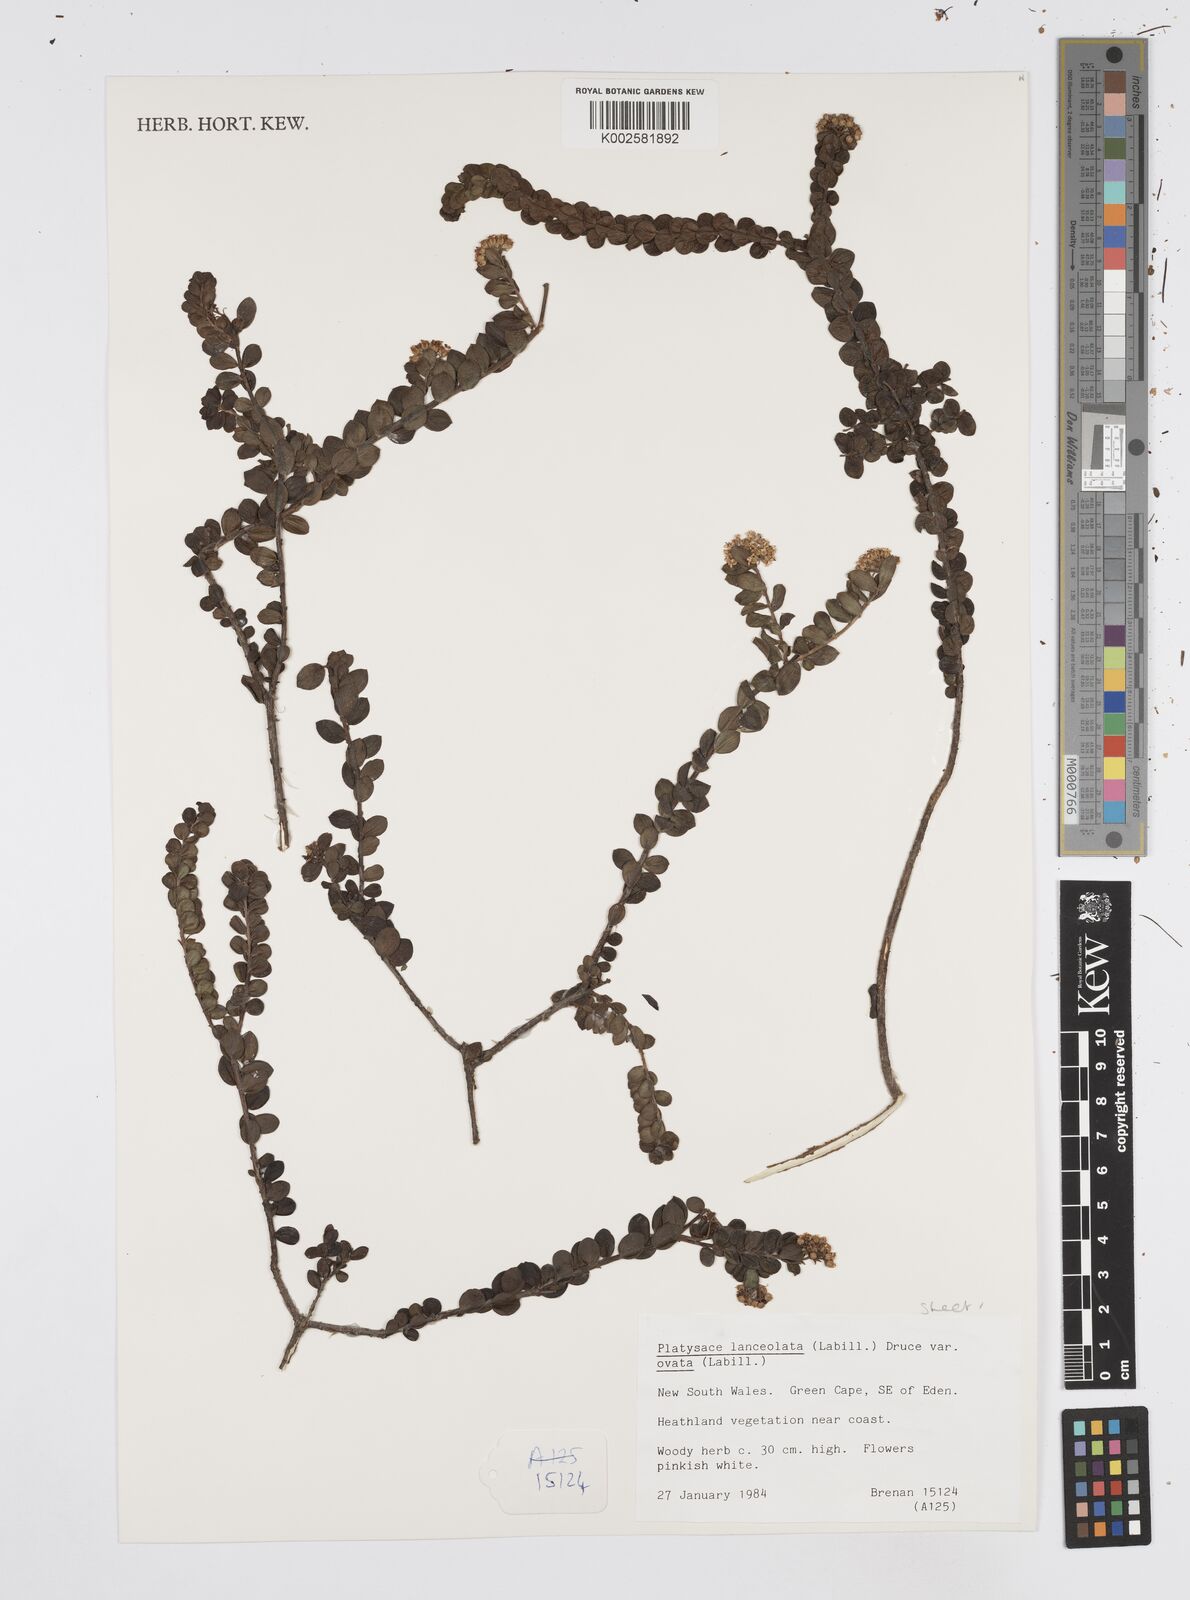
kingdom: Plantae
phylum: Tracheophyta
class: Magnoliopsida
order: Apiales
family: Apiaceae
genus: Platysace
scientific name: Platysace lanceolata
